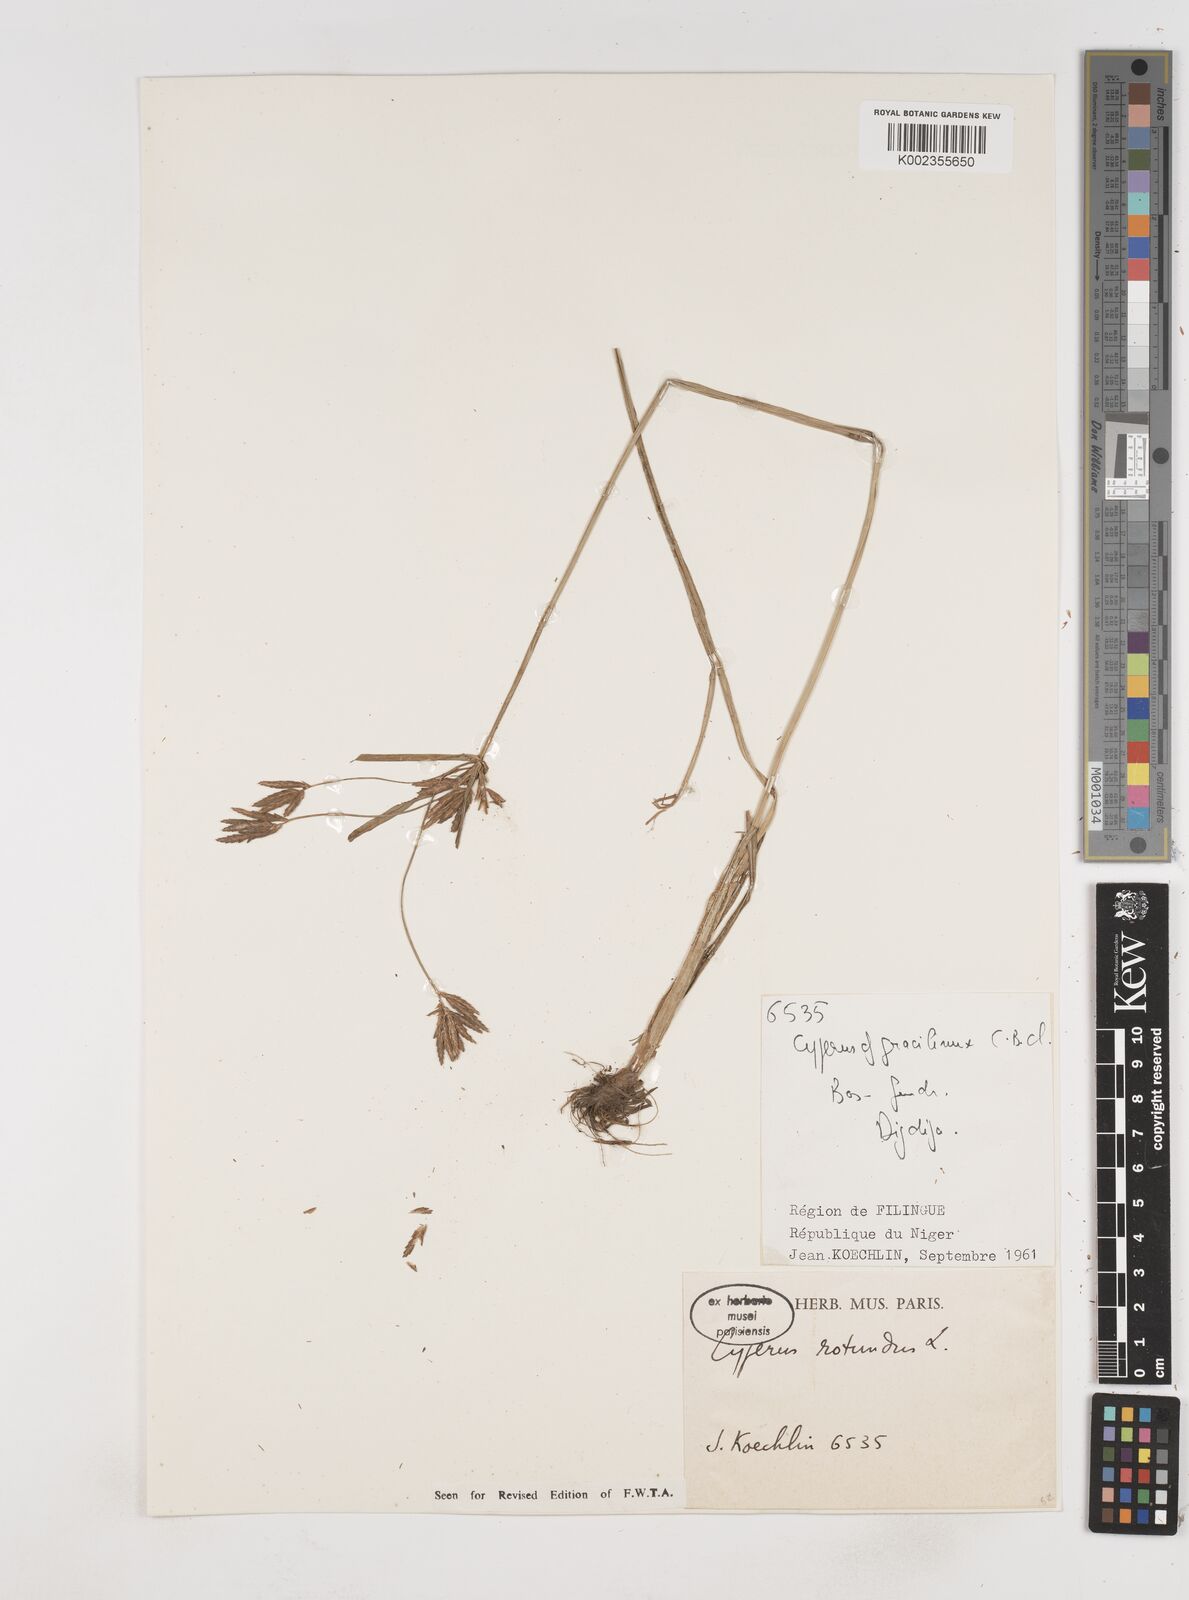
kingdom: Plantae
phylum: Tracheophyta
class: Liliopsida
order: Poales
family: Cyperaceae
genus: Cyperus
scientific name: Cyperus rotundus
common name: Nutgrass
